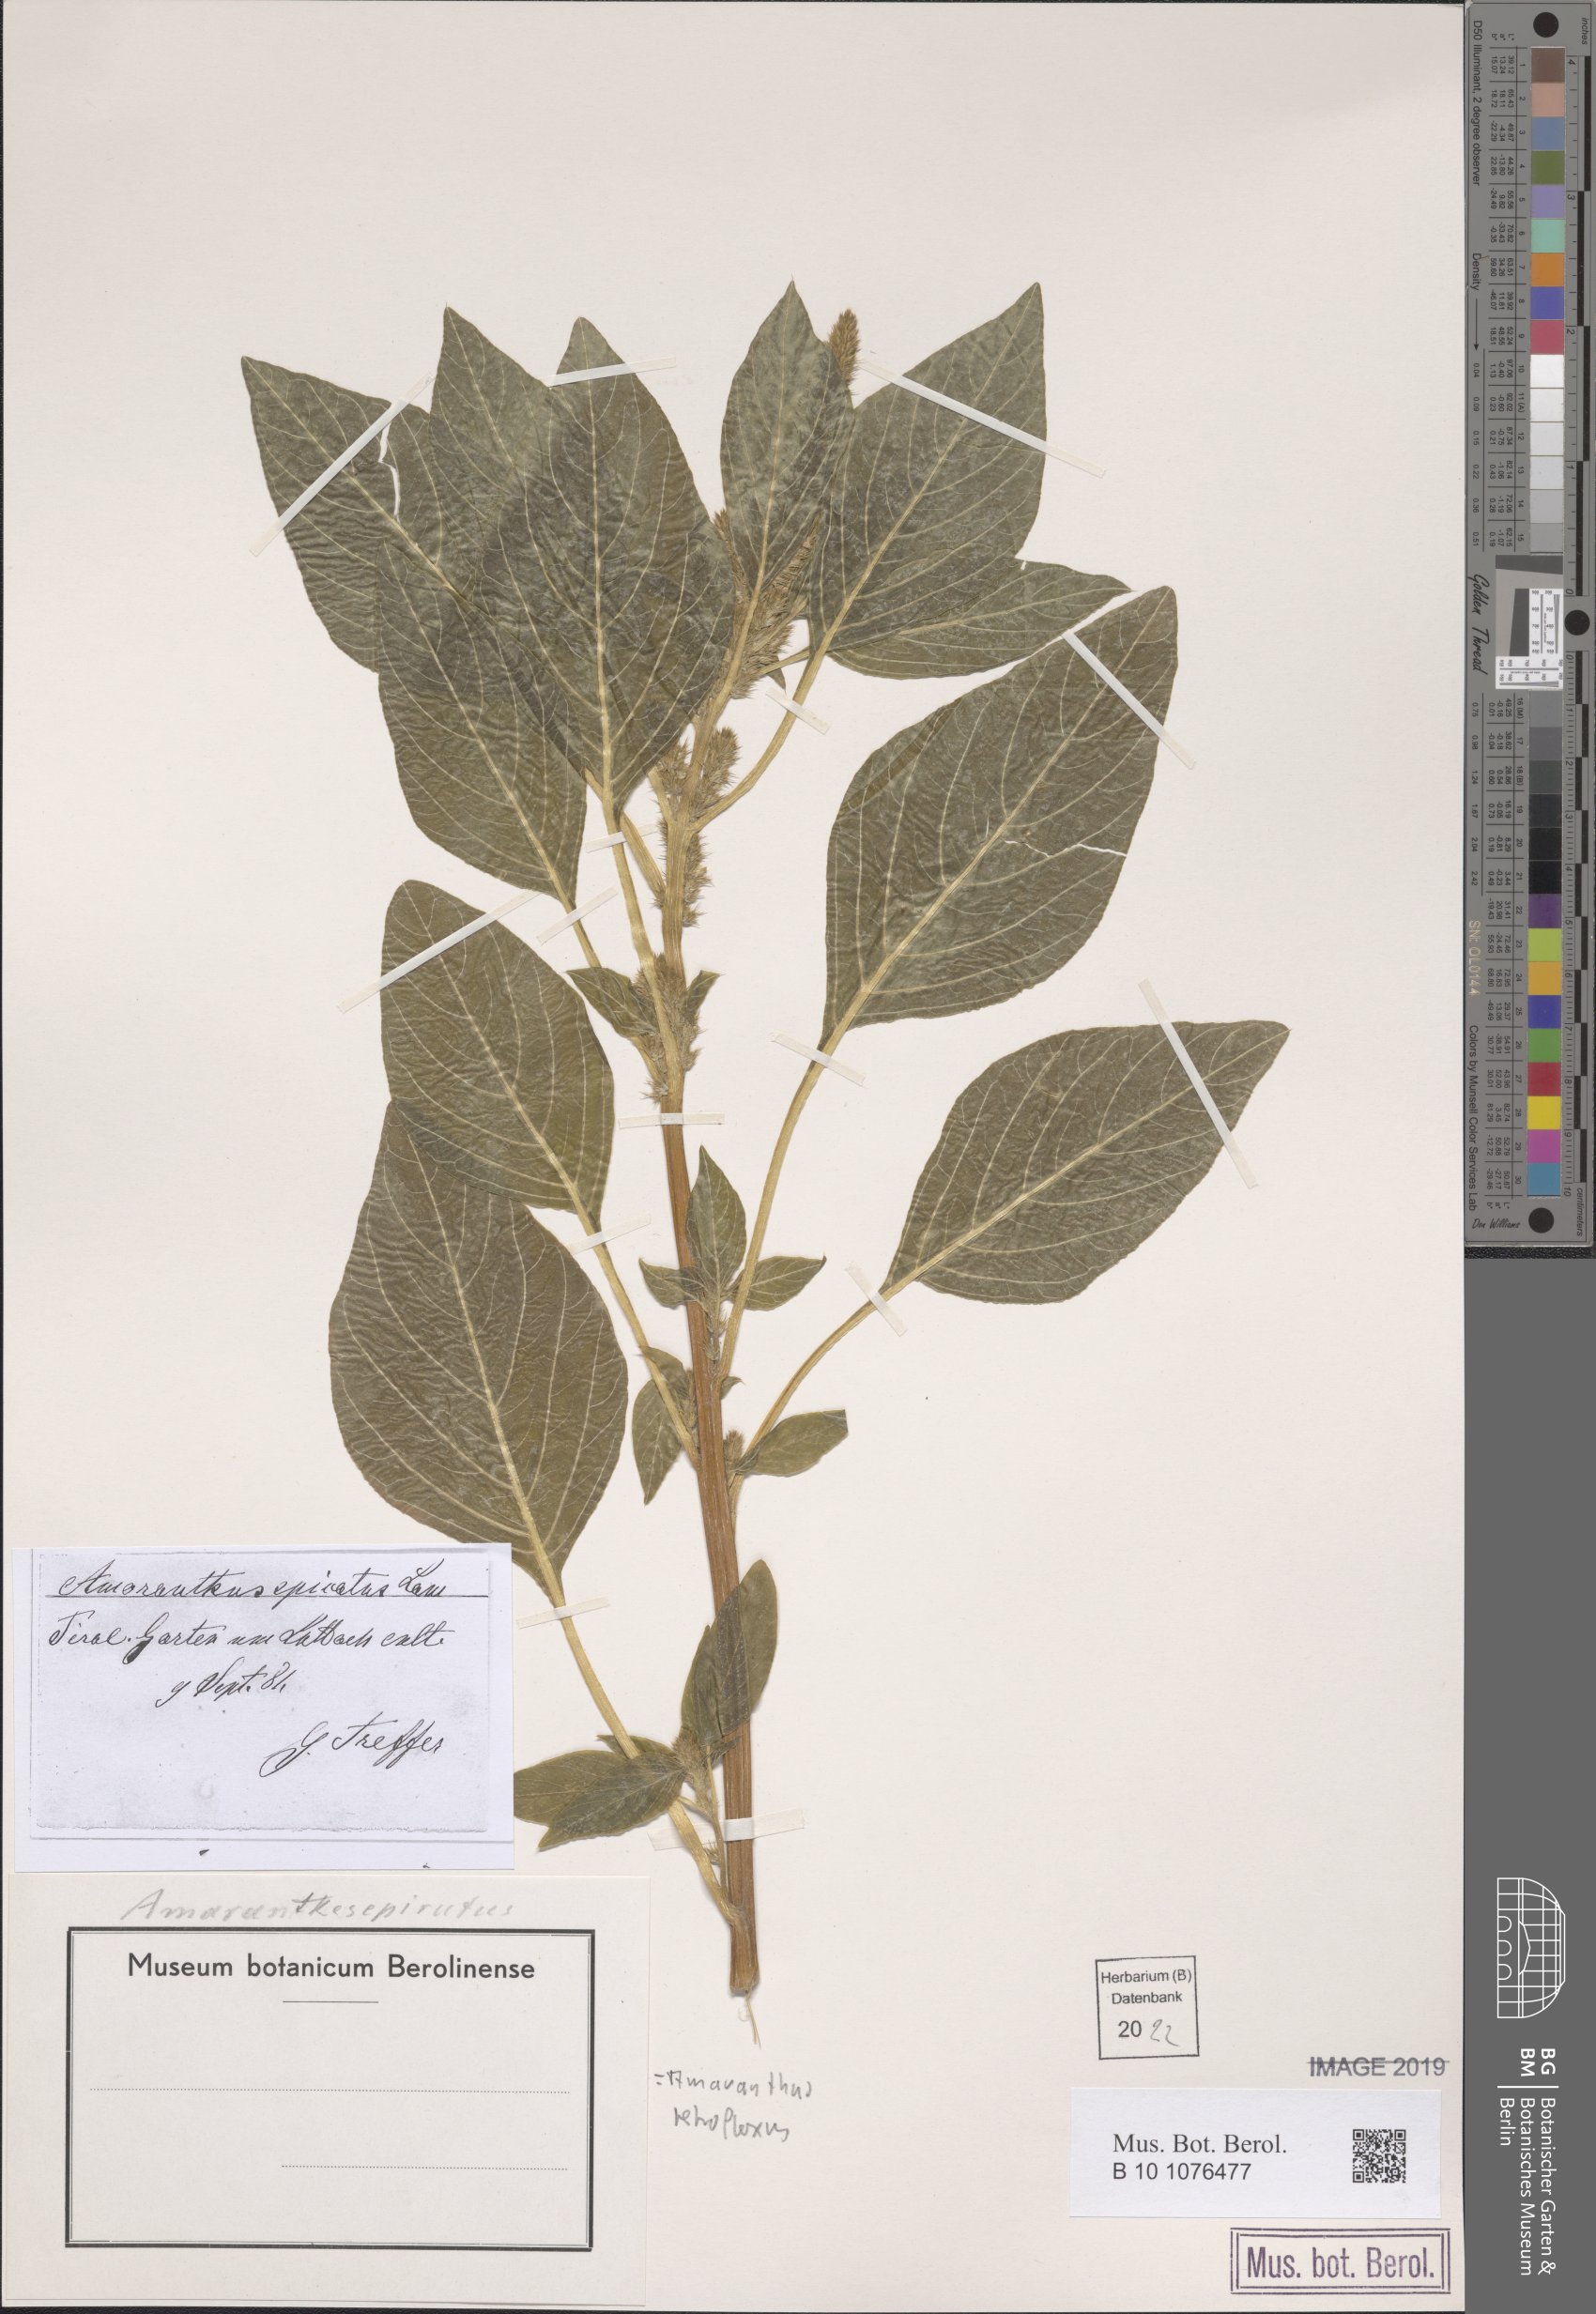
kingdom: Plantae
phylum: Tracheophyta
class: Magnoliopsida
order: Caryophyllales
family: Amaranthaceae
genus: Amaranthus
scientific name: Amaranthus retroflexus
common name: Redroot amaranth
